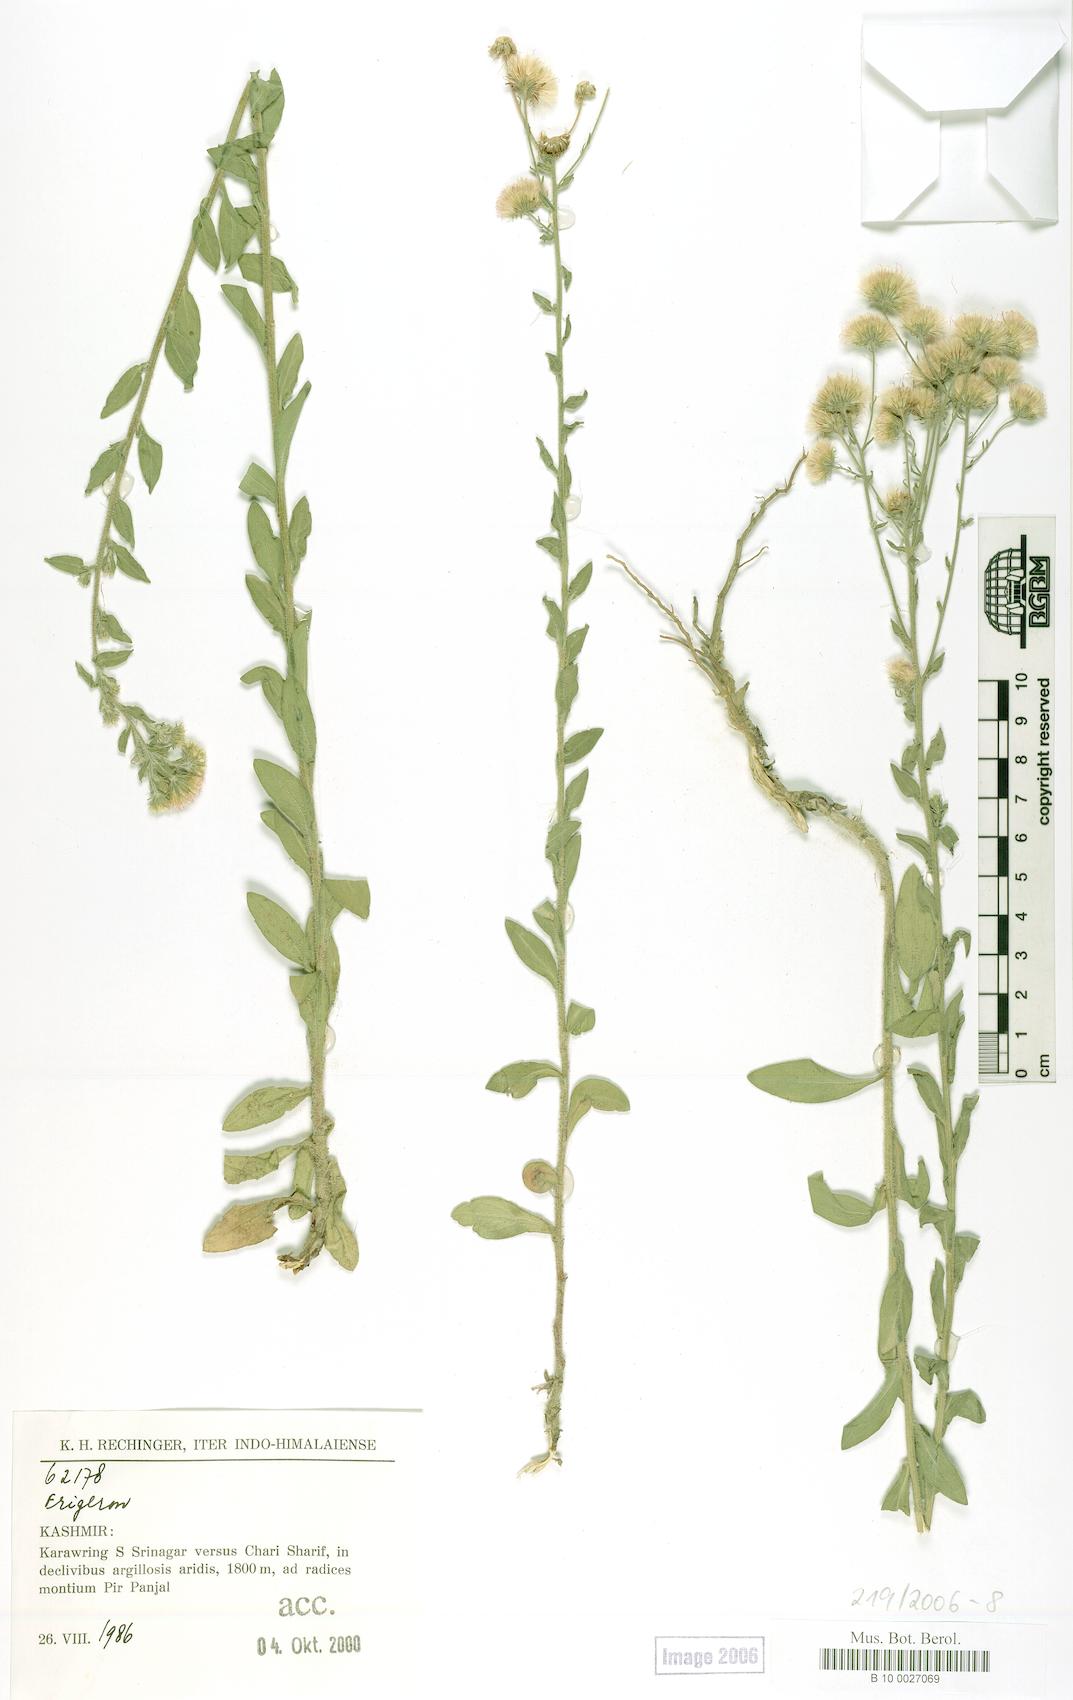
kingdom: Plantae
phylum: Tracheophyta
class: Magnoliopsida
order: Asterales
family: Asteraceae
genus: Erigeron
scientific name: Erigeron
